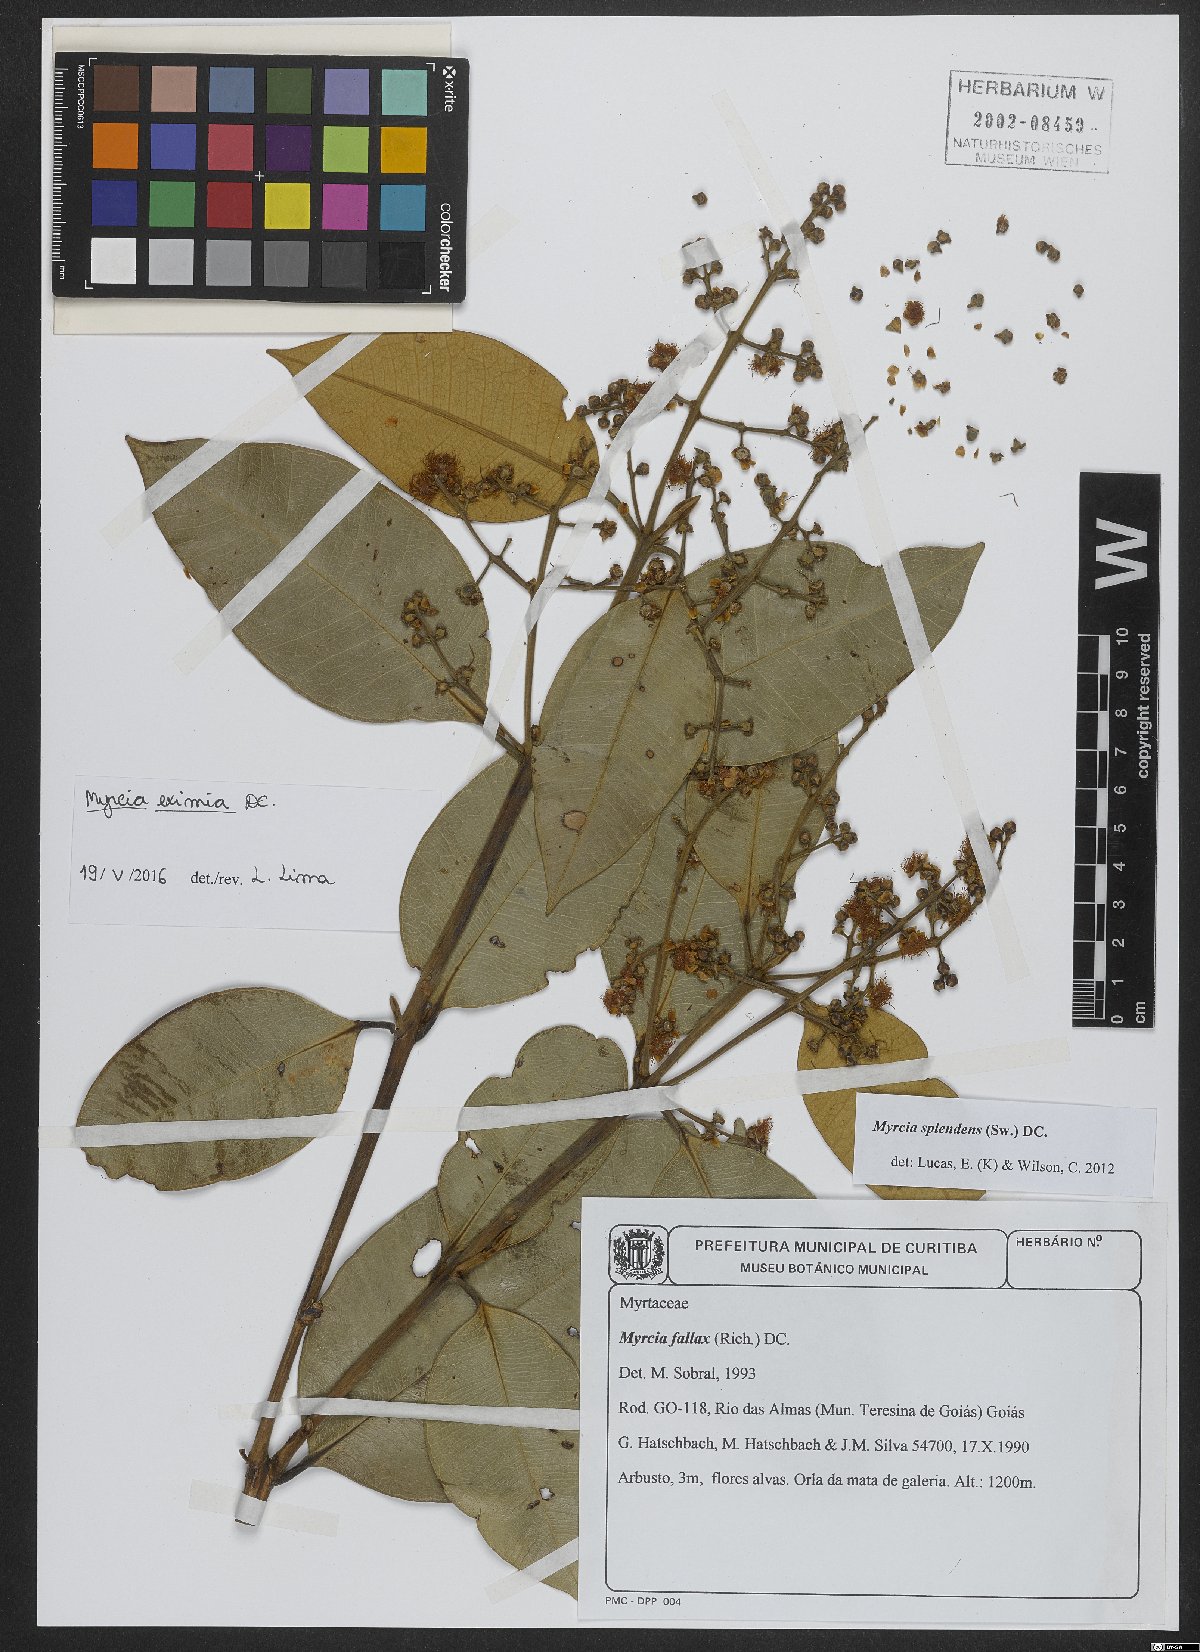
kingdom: Plantae
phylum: Tracheophyta
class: Magnoliopsida
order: Myrtales
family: Myrtaceae
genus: Myrcia
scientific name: Myrcia eximia
